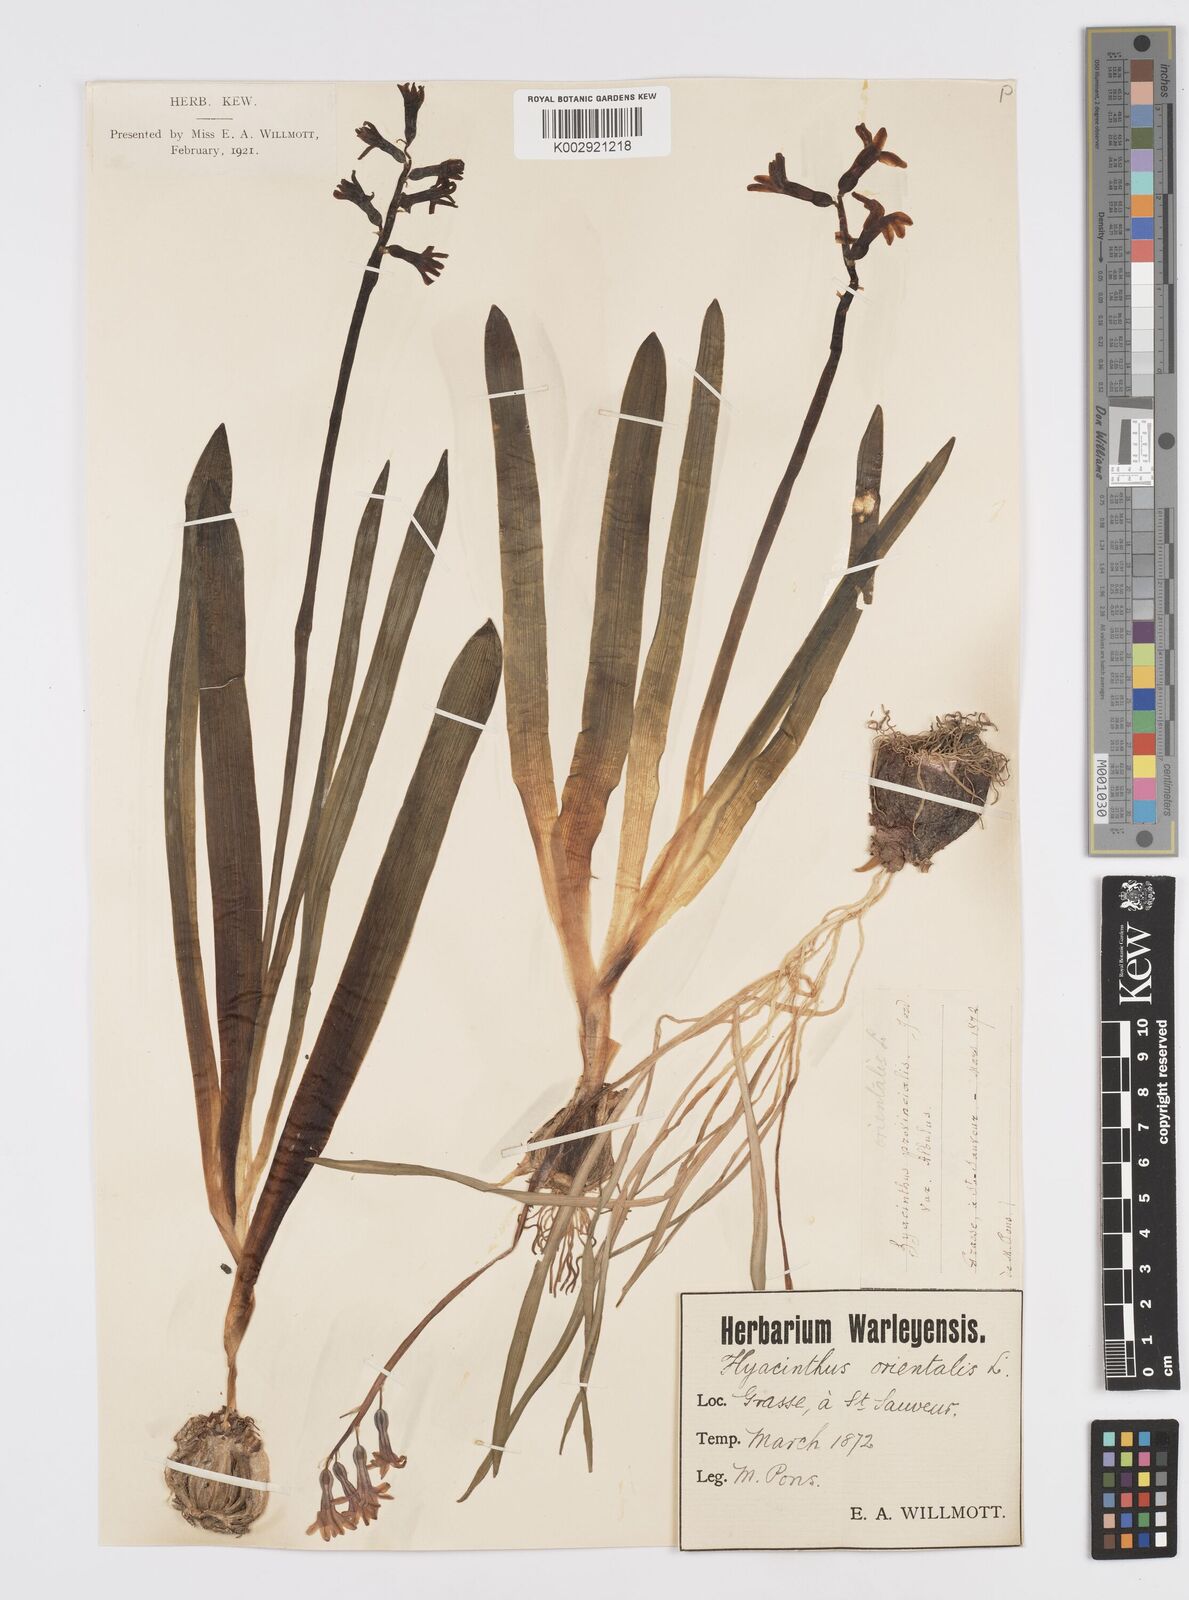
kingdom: Plantae
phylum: Tracheophyta
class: Liliopsida
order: Asparagales
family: Asparagaceae
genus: Hyacinthus
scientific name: Hyacinthus orientalis
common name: Hyacinth
